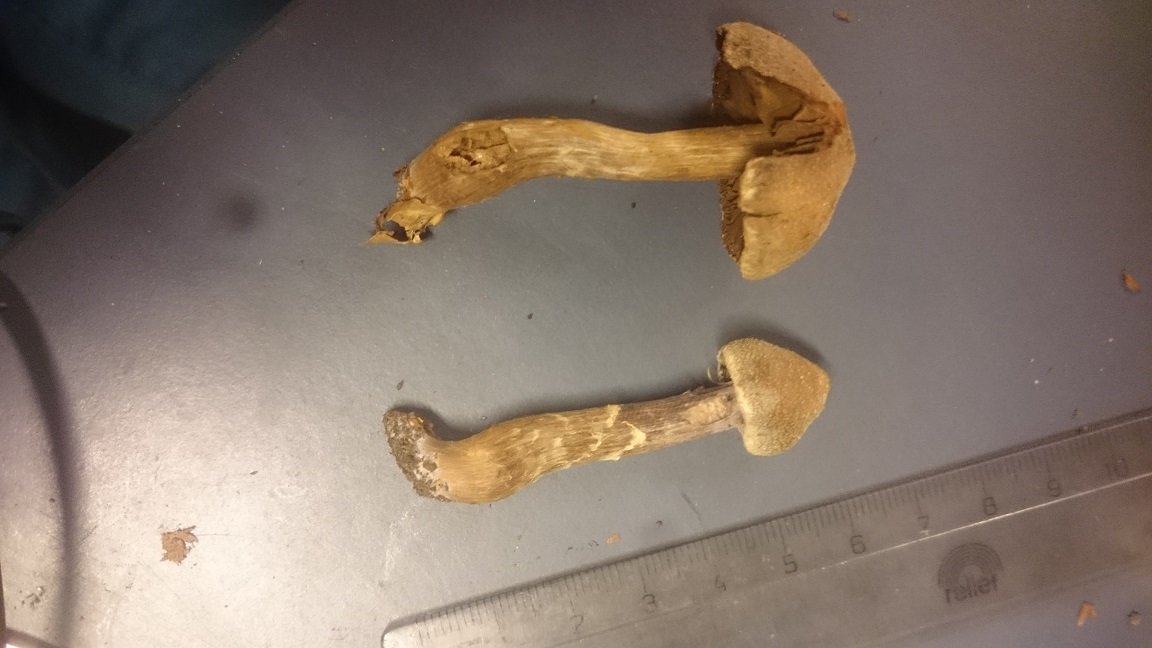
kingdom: Fungi
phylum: Basidiomycota
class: Agaricomycetes
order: Agaricales
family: Cortinariaceae
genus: Cortinarius
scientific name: Cortinarius
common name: pelargonie-slørhat
